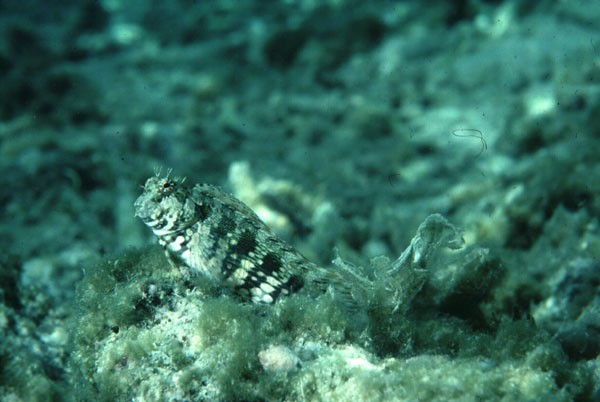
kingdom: Animalia
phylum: Chordata
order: Perciformes
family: Blenniidae
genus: Salarias
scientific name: Salarias fasciatus
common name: Jewelled blenny
